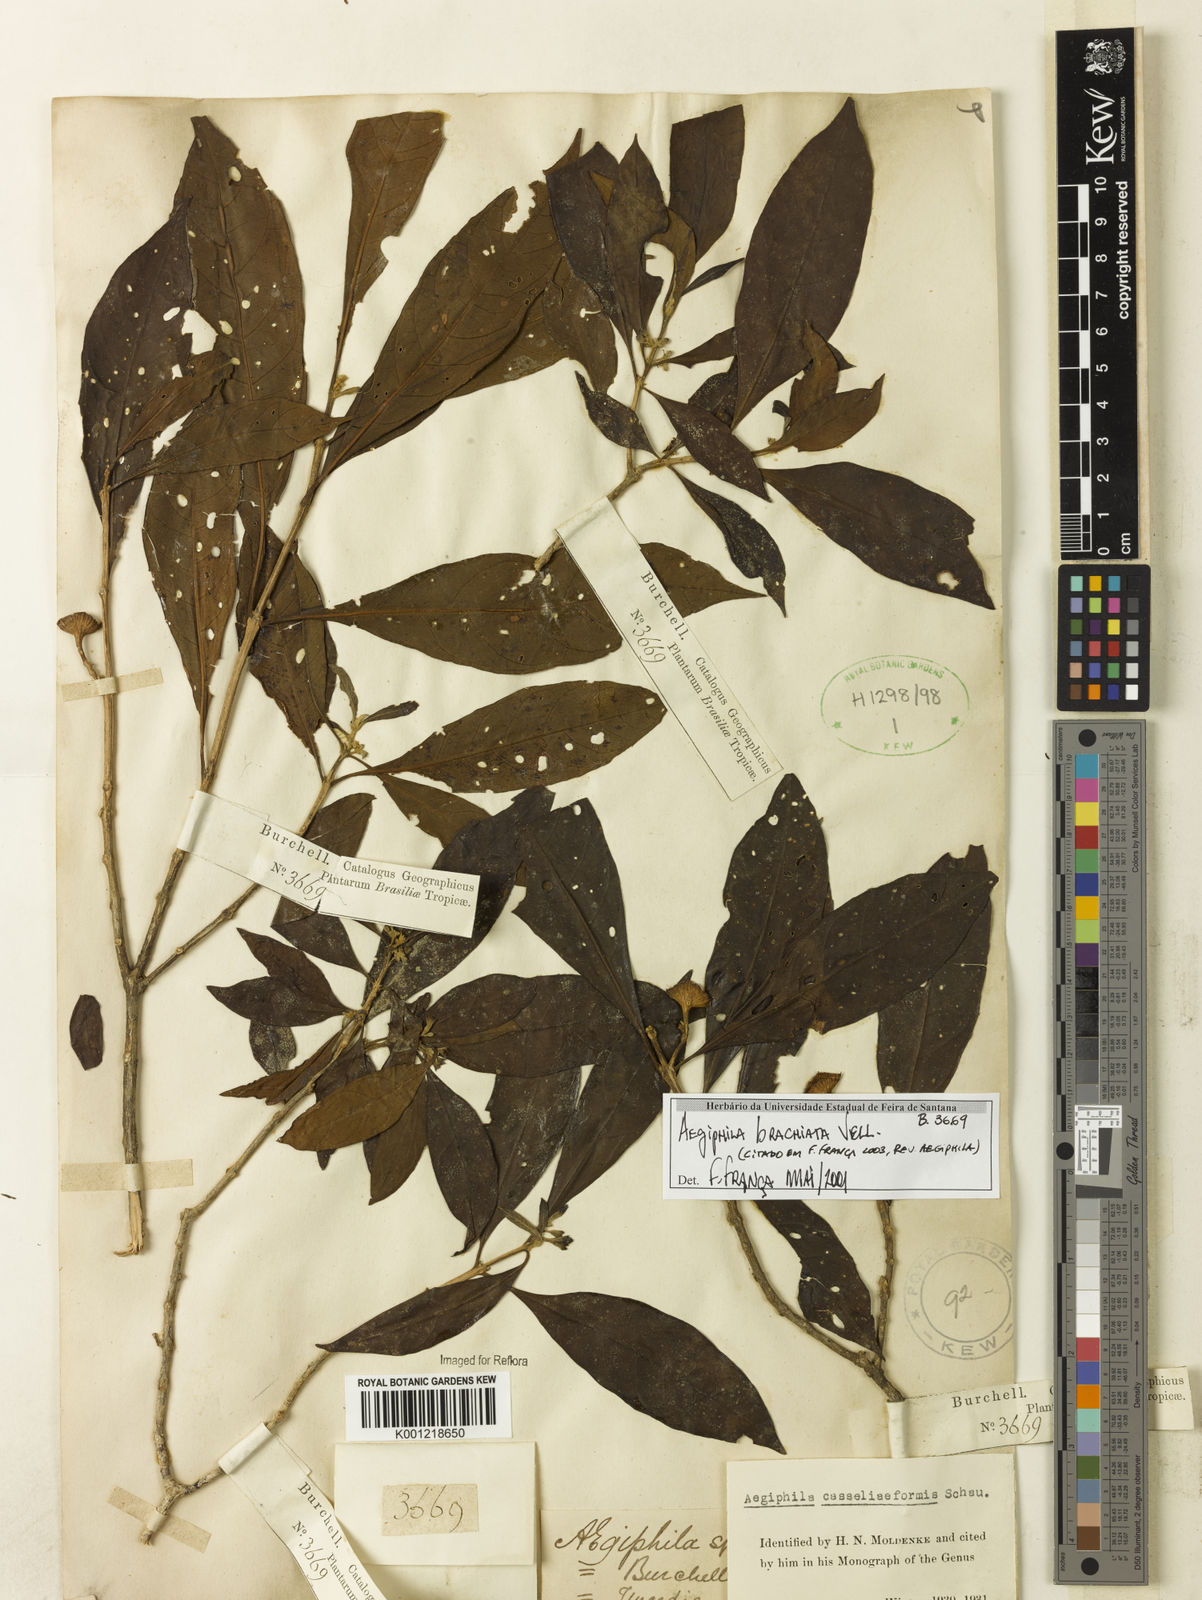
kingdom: Plantae
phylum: Tracheophyta
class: Magnoliopsida
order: Lamiales
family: Lamiaceae
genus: Aegiphila
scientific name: Aegiphila brachiata
